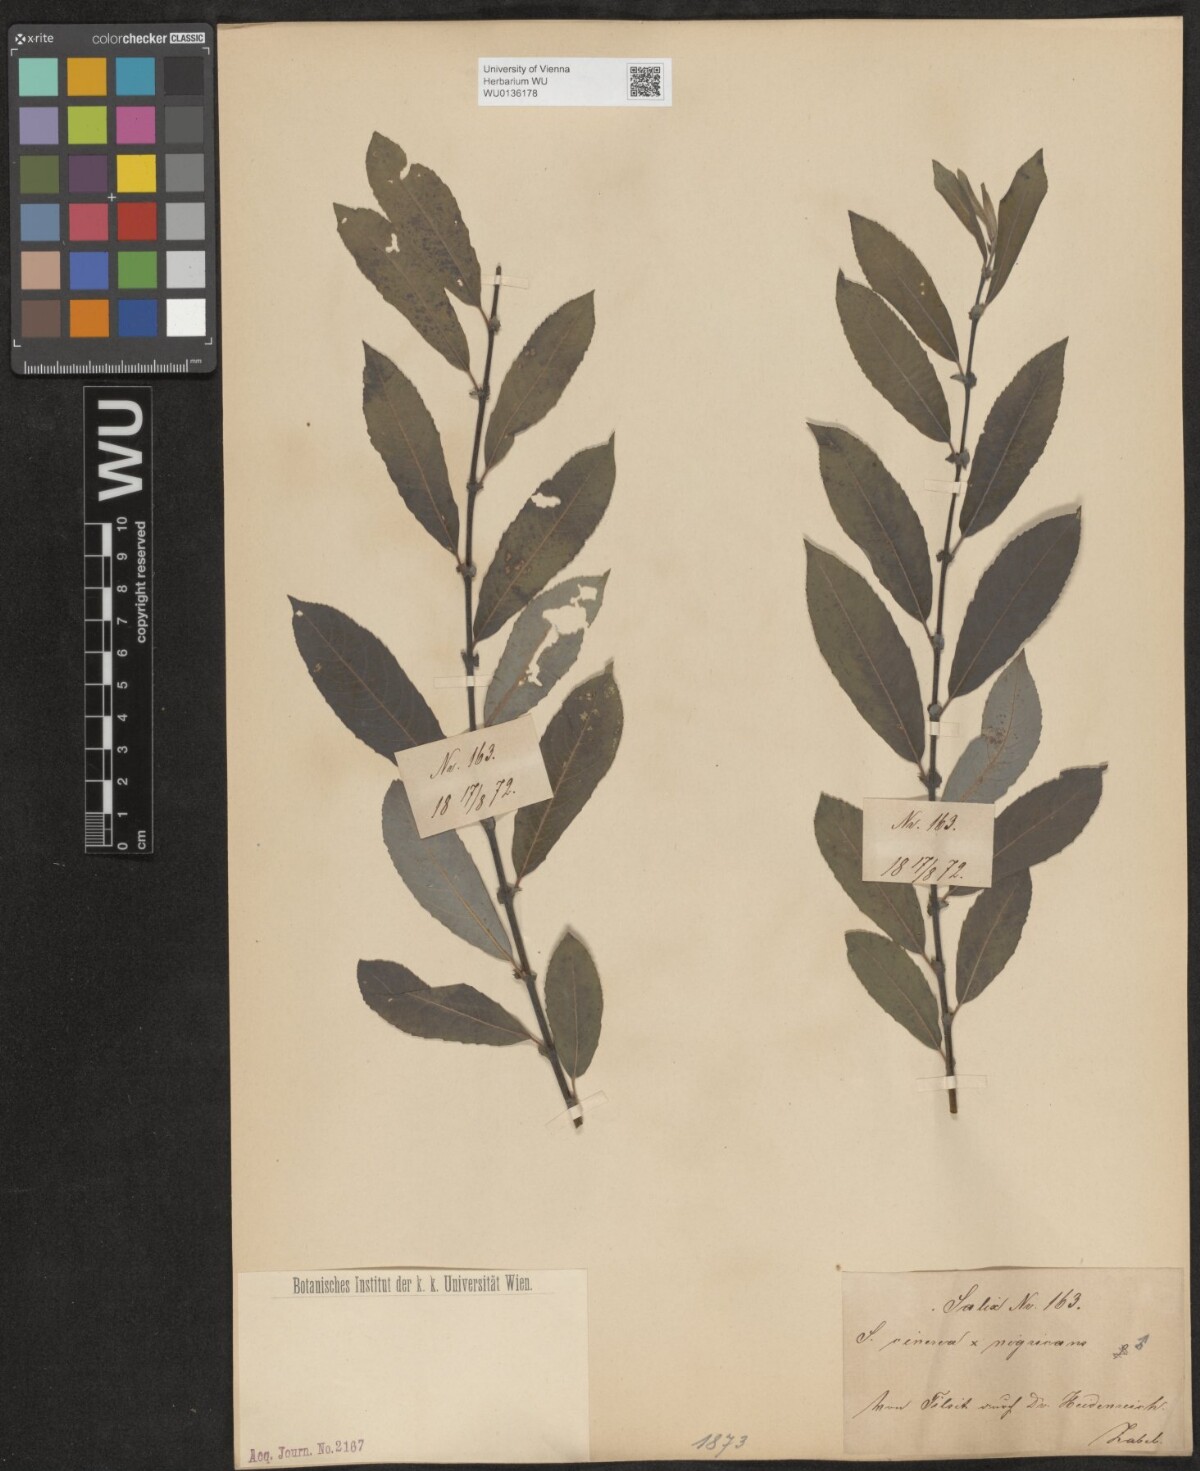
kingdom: Plantae
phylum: Tracheophyta
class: Magnoliopsida
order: Malpighiales
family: Salicaceae
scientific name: Salicaceae
